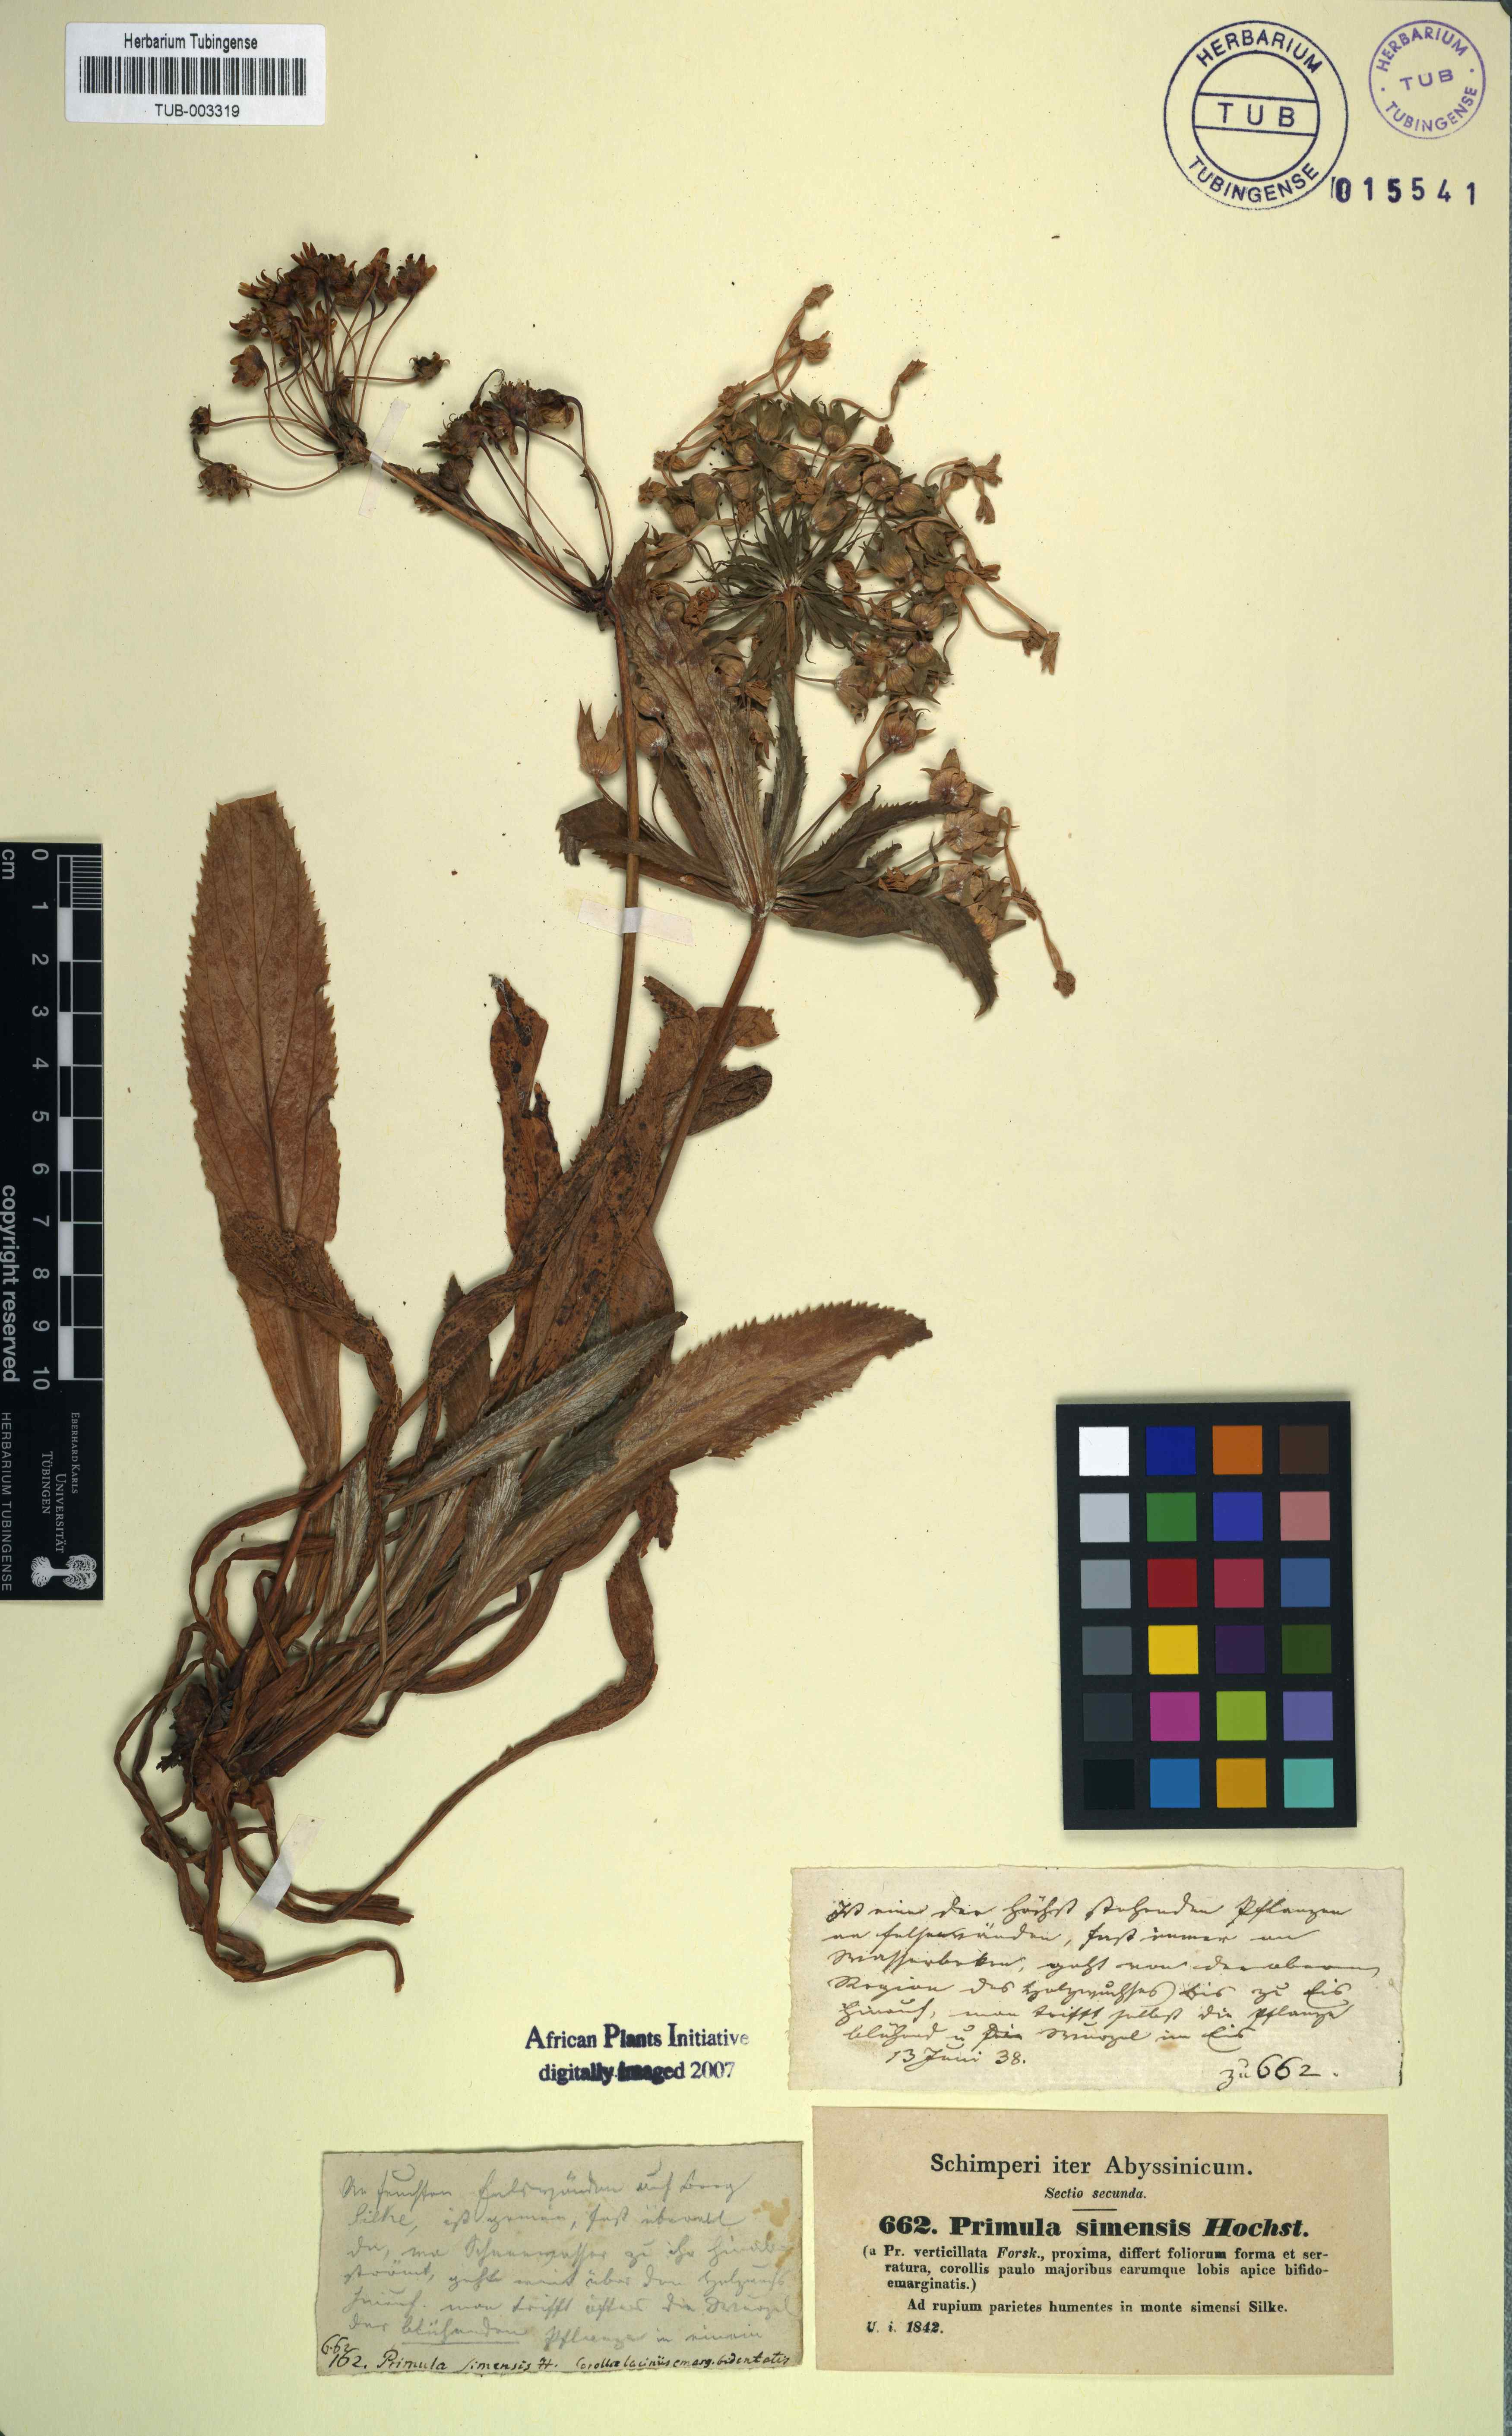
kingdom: Plantae
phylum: Tracheophyta
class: Magnoliopsida
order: Ericales
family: Primulaceae
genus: Evotrochis
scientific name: Evotrochis verticillata
